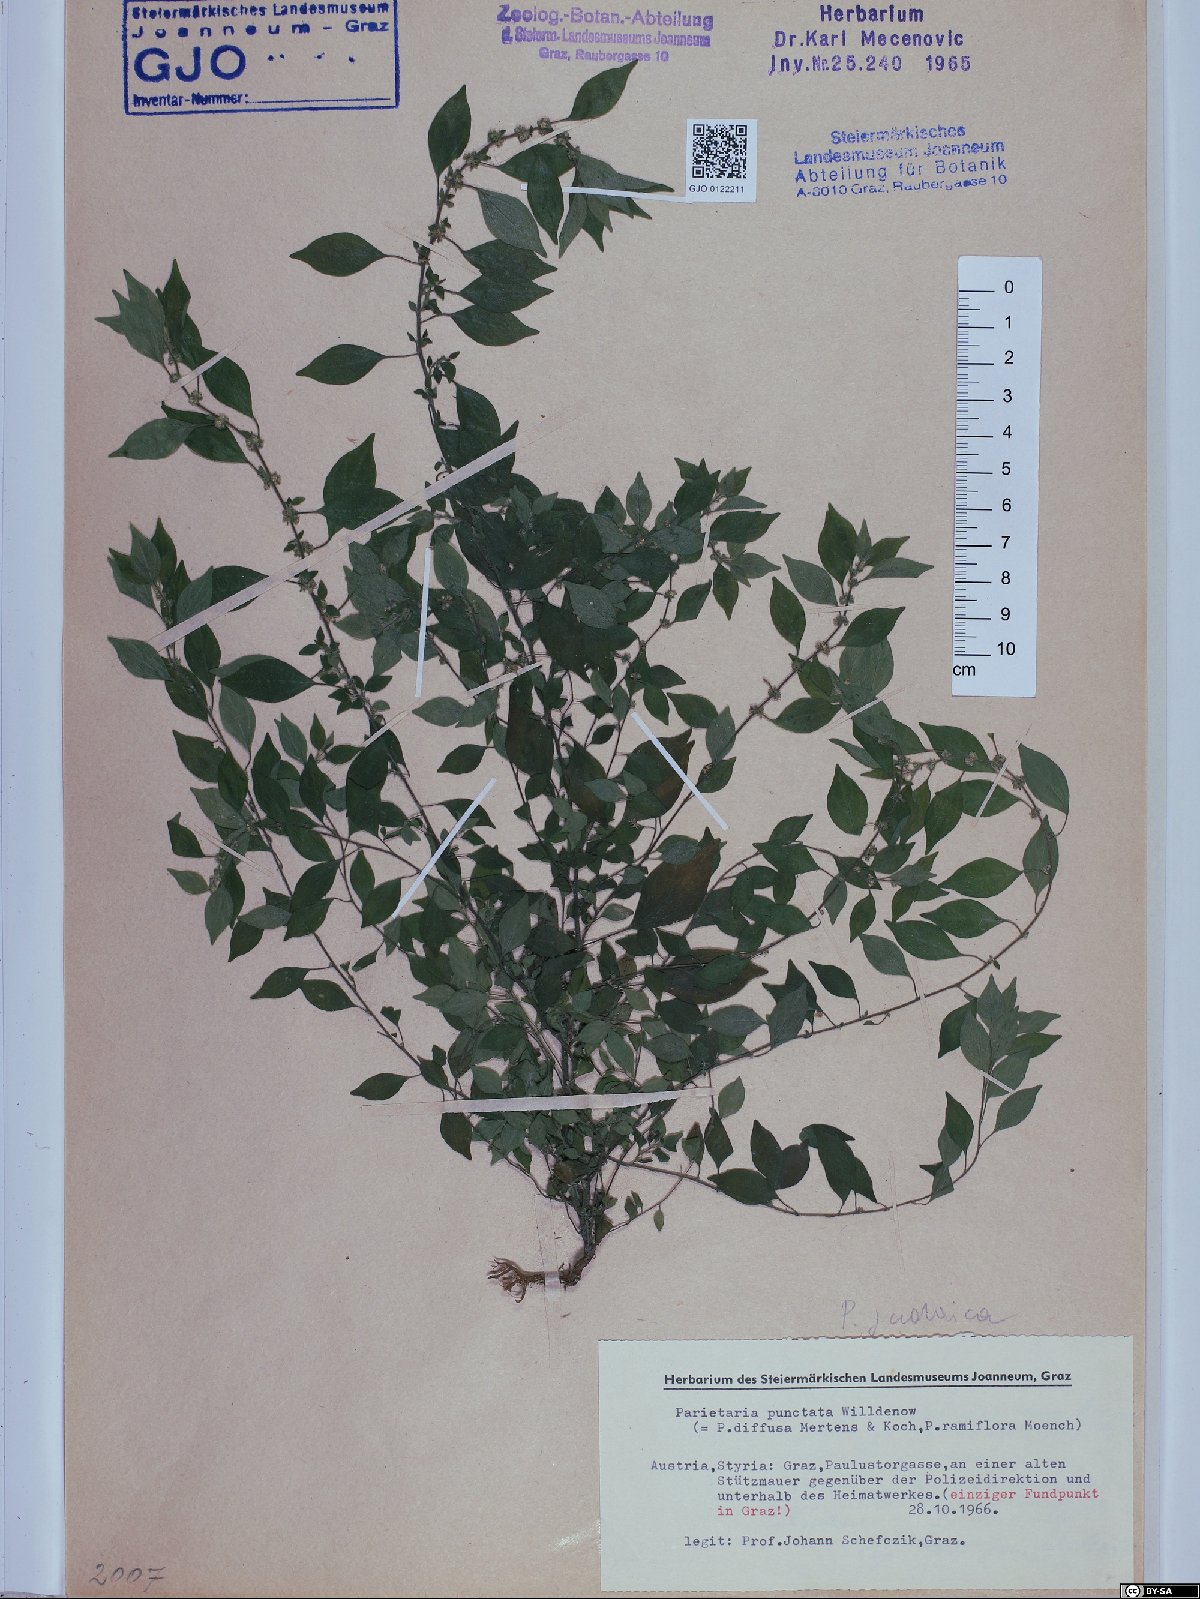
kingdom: Plantae
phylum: Tracheophyta
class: Magnoliopsida
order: Rosales
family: Urticaceae
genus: Parietaria
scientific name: Parietaria judaica
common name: Pellitory-of-the-wall
